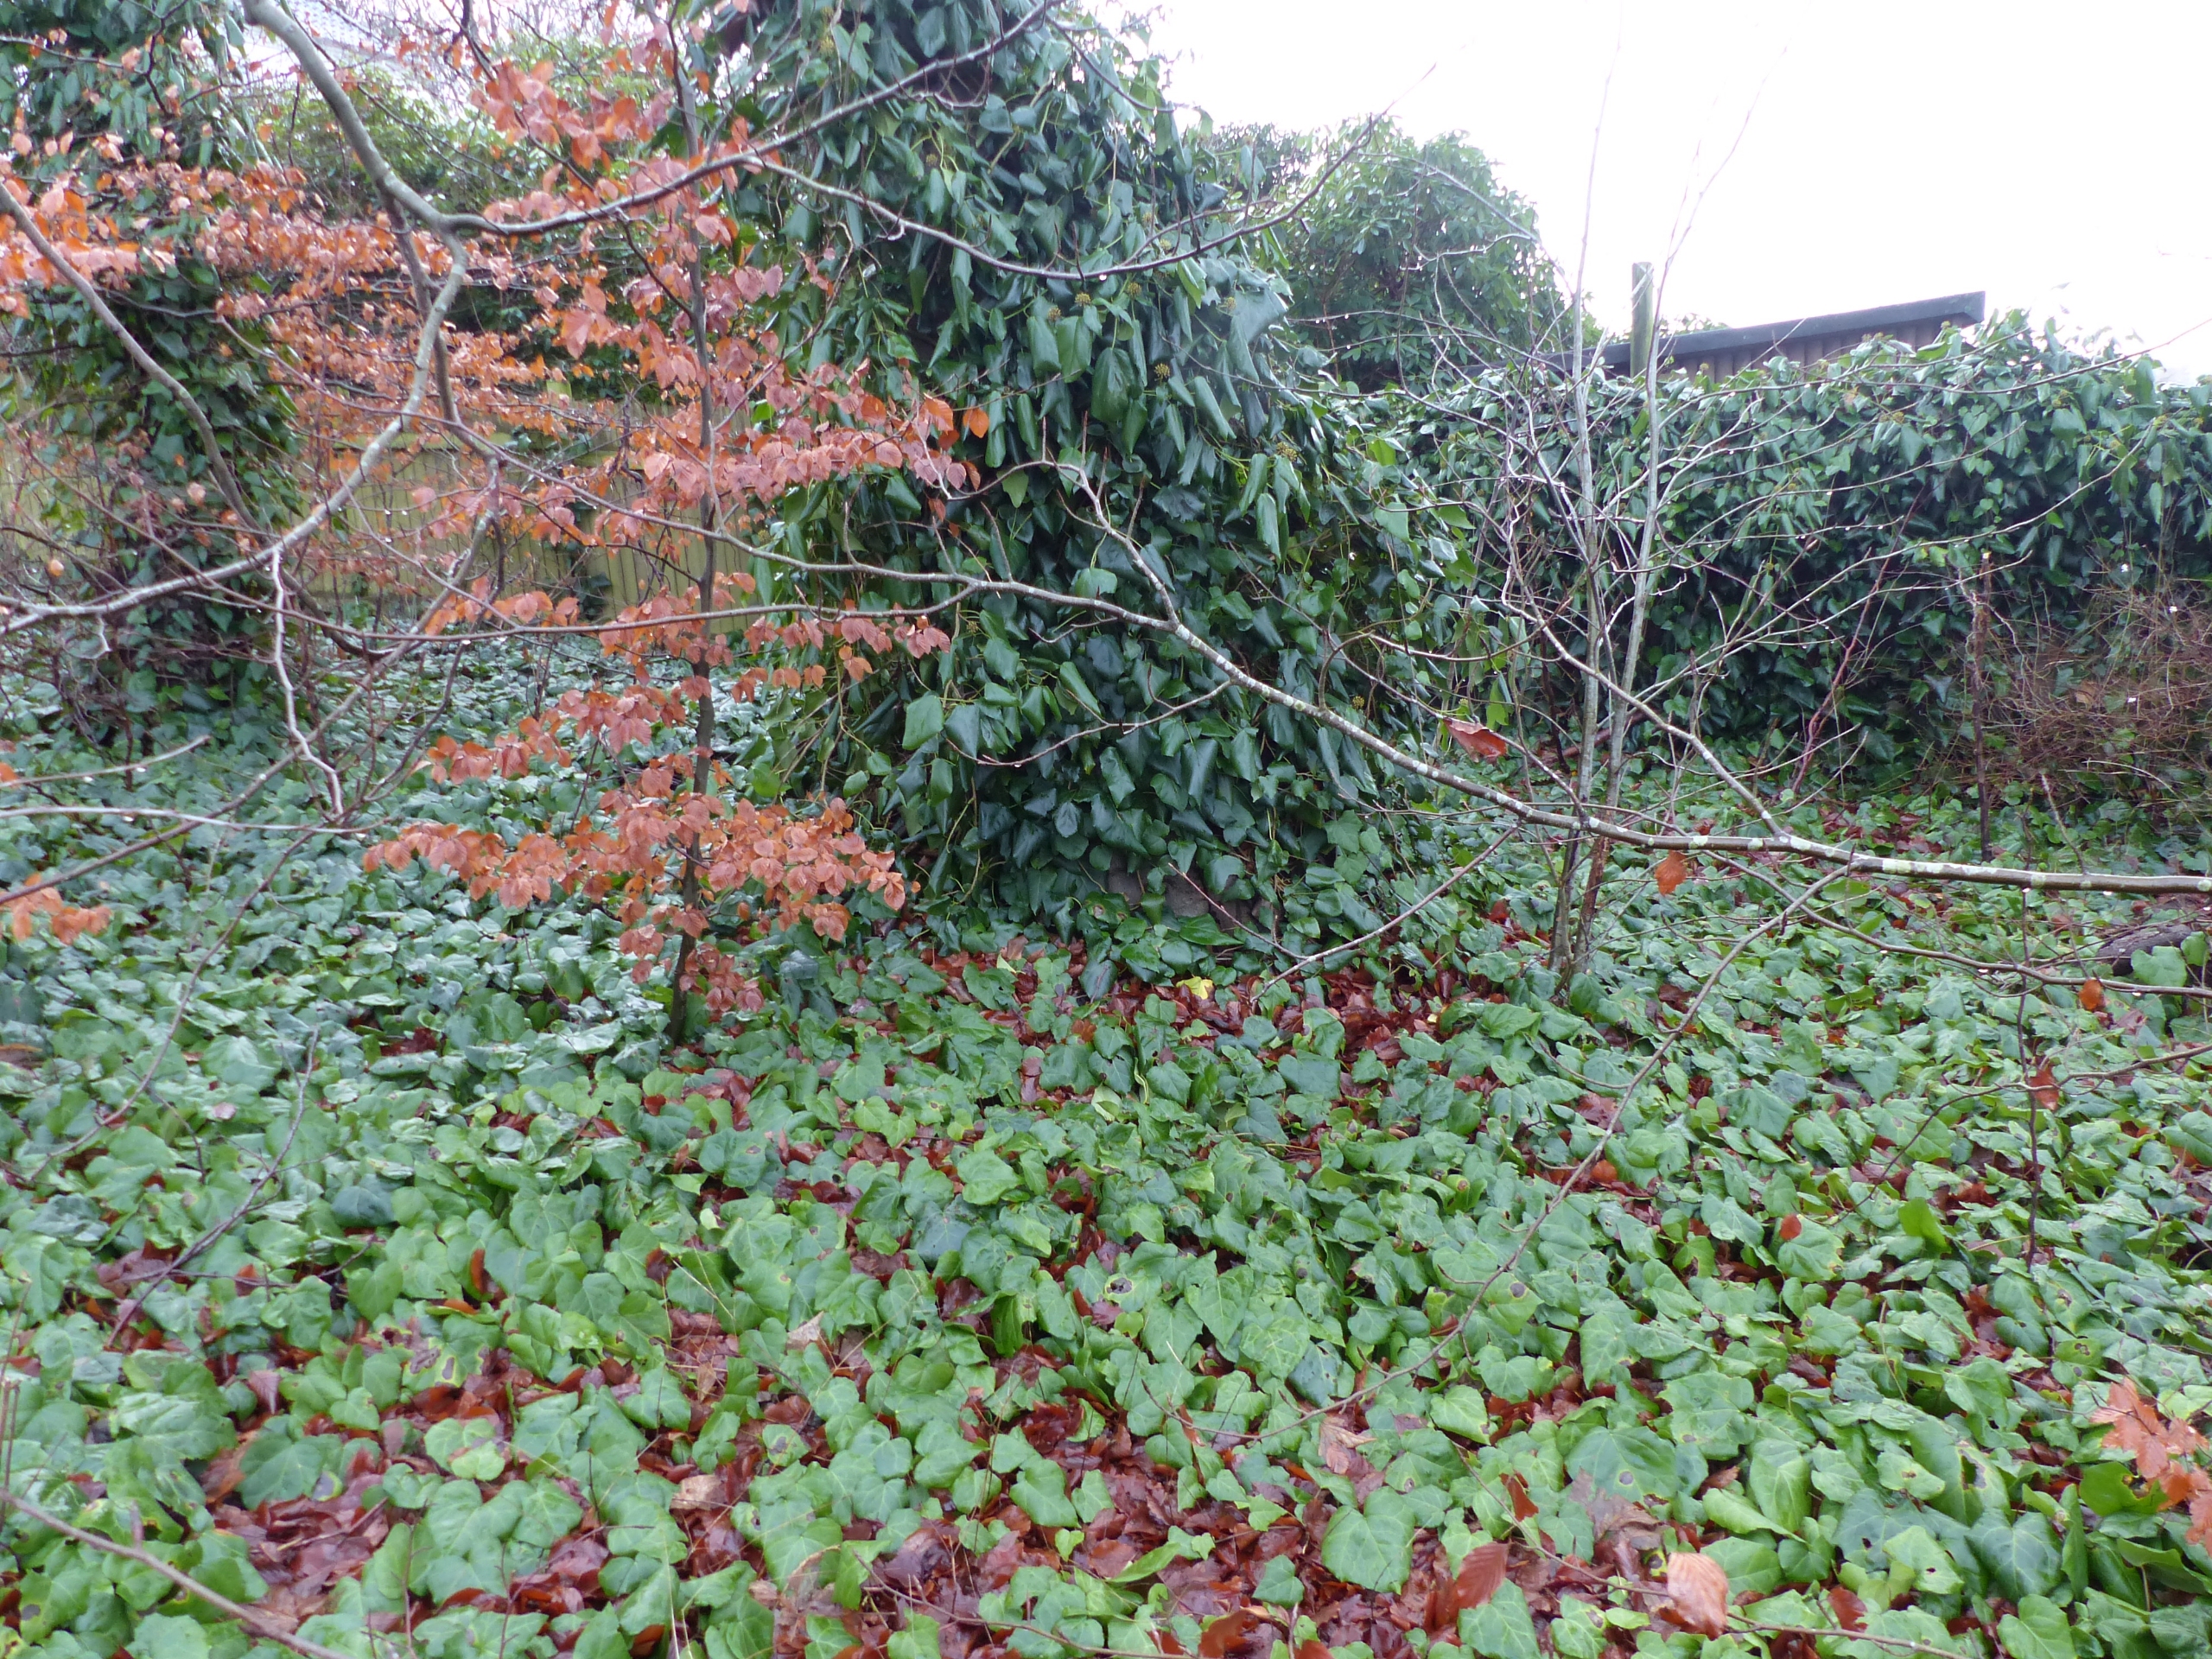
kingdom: Plantae
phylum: Tracheophyta
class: Magnoliopsida
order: Apiales
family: Araliaceae
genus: Hedera
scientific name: Hedera colchica
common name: Kæmpe-vedbend
